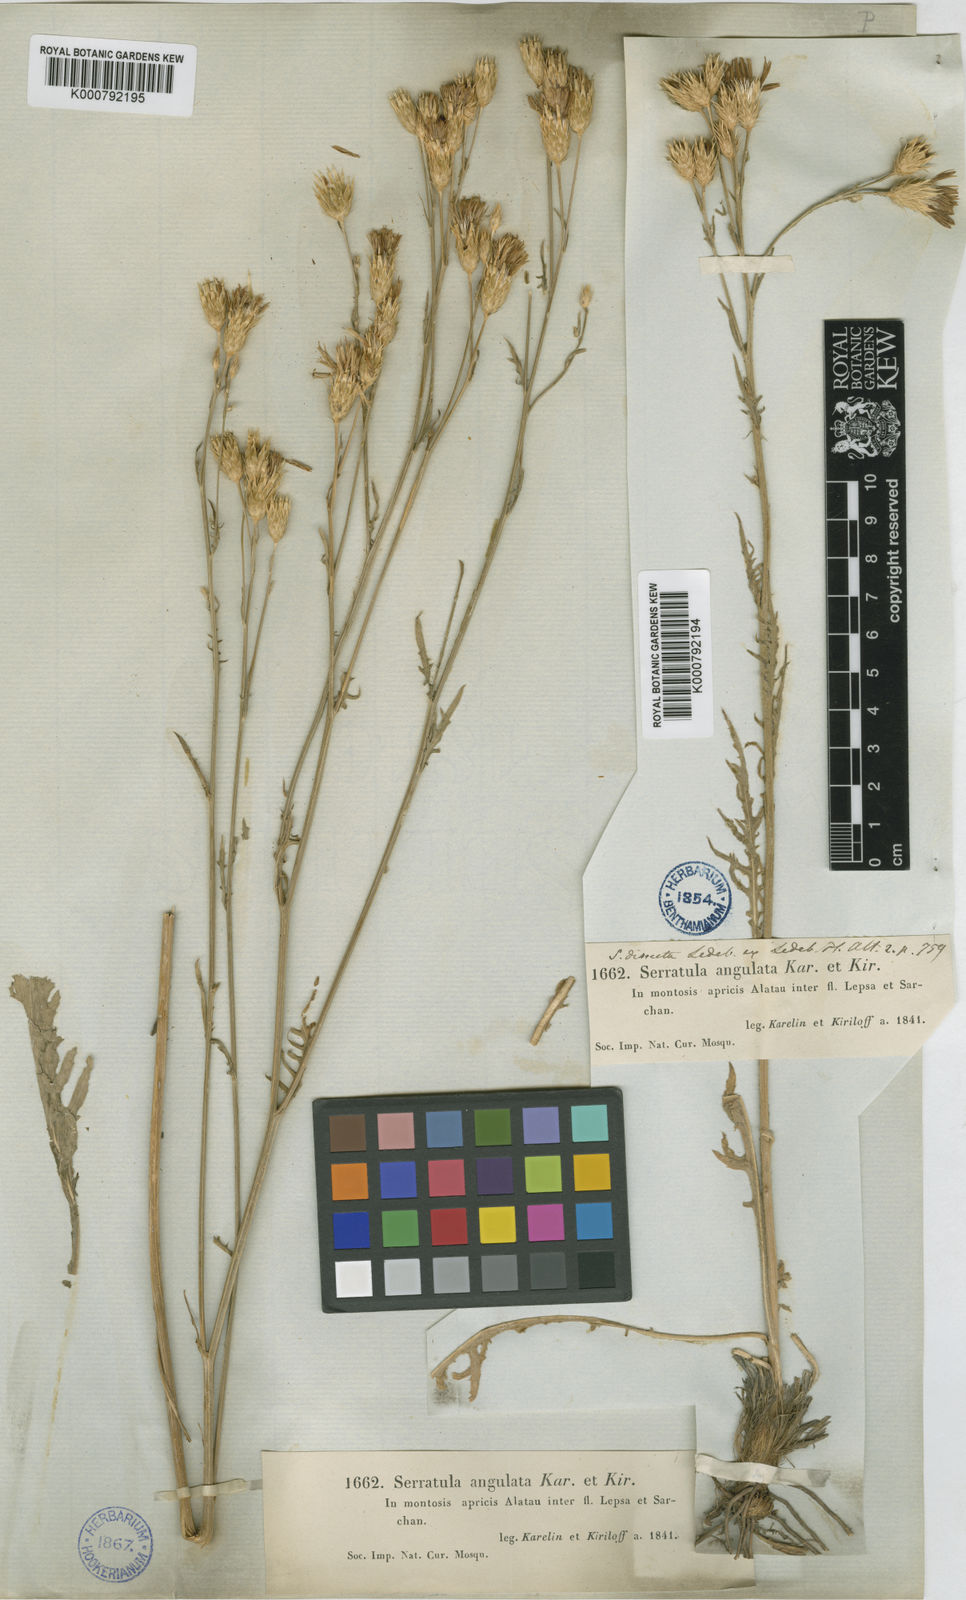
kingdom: Plantae
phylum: Tracheophyta
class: Magnoliopsida
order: Asterales
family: Asteraceae
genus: Klasea
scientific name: Klasea dissecta
